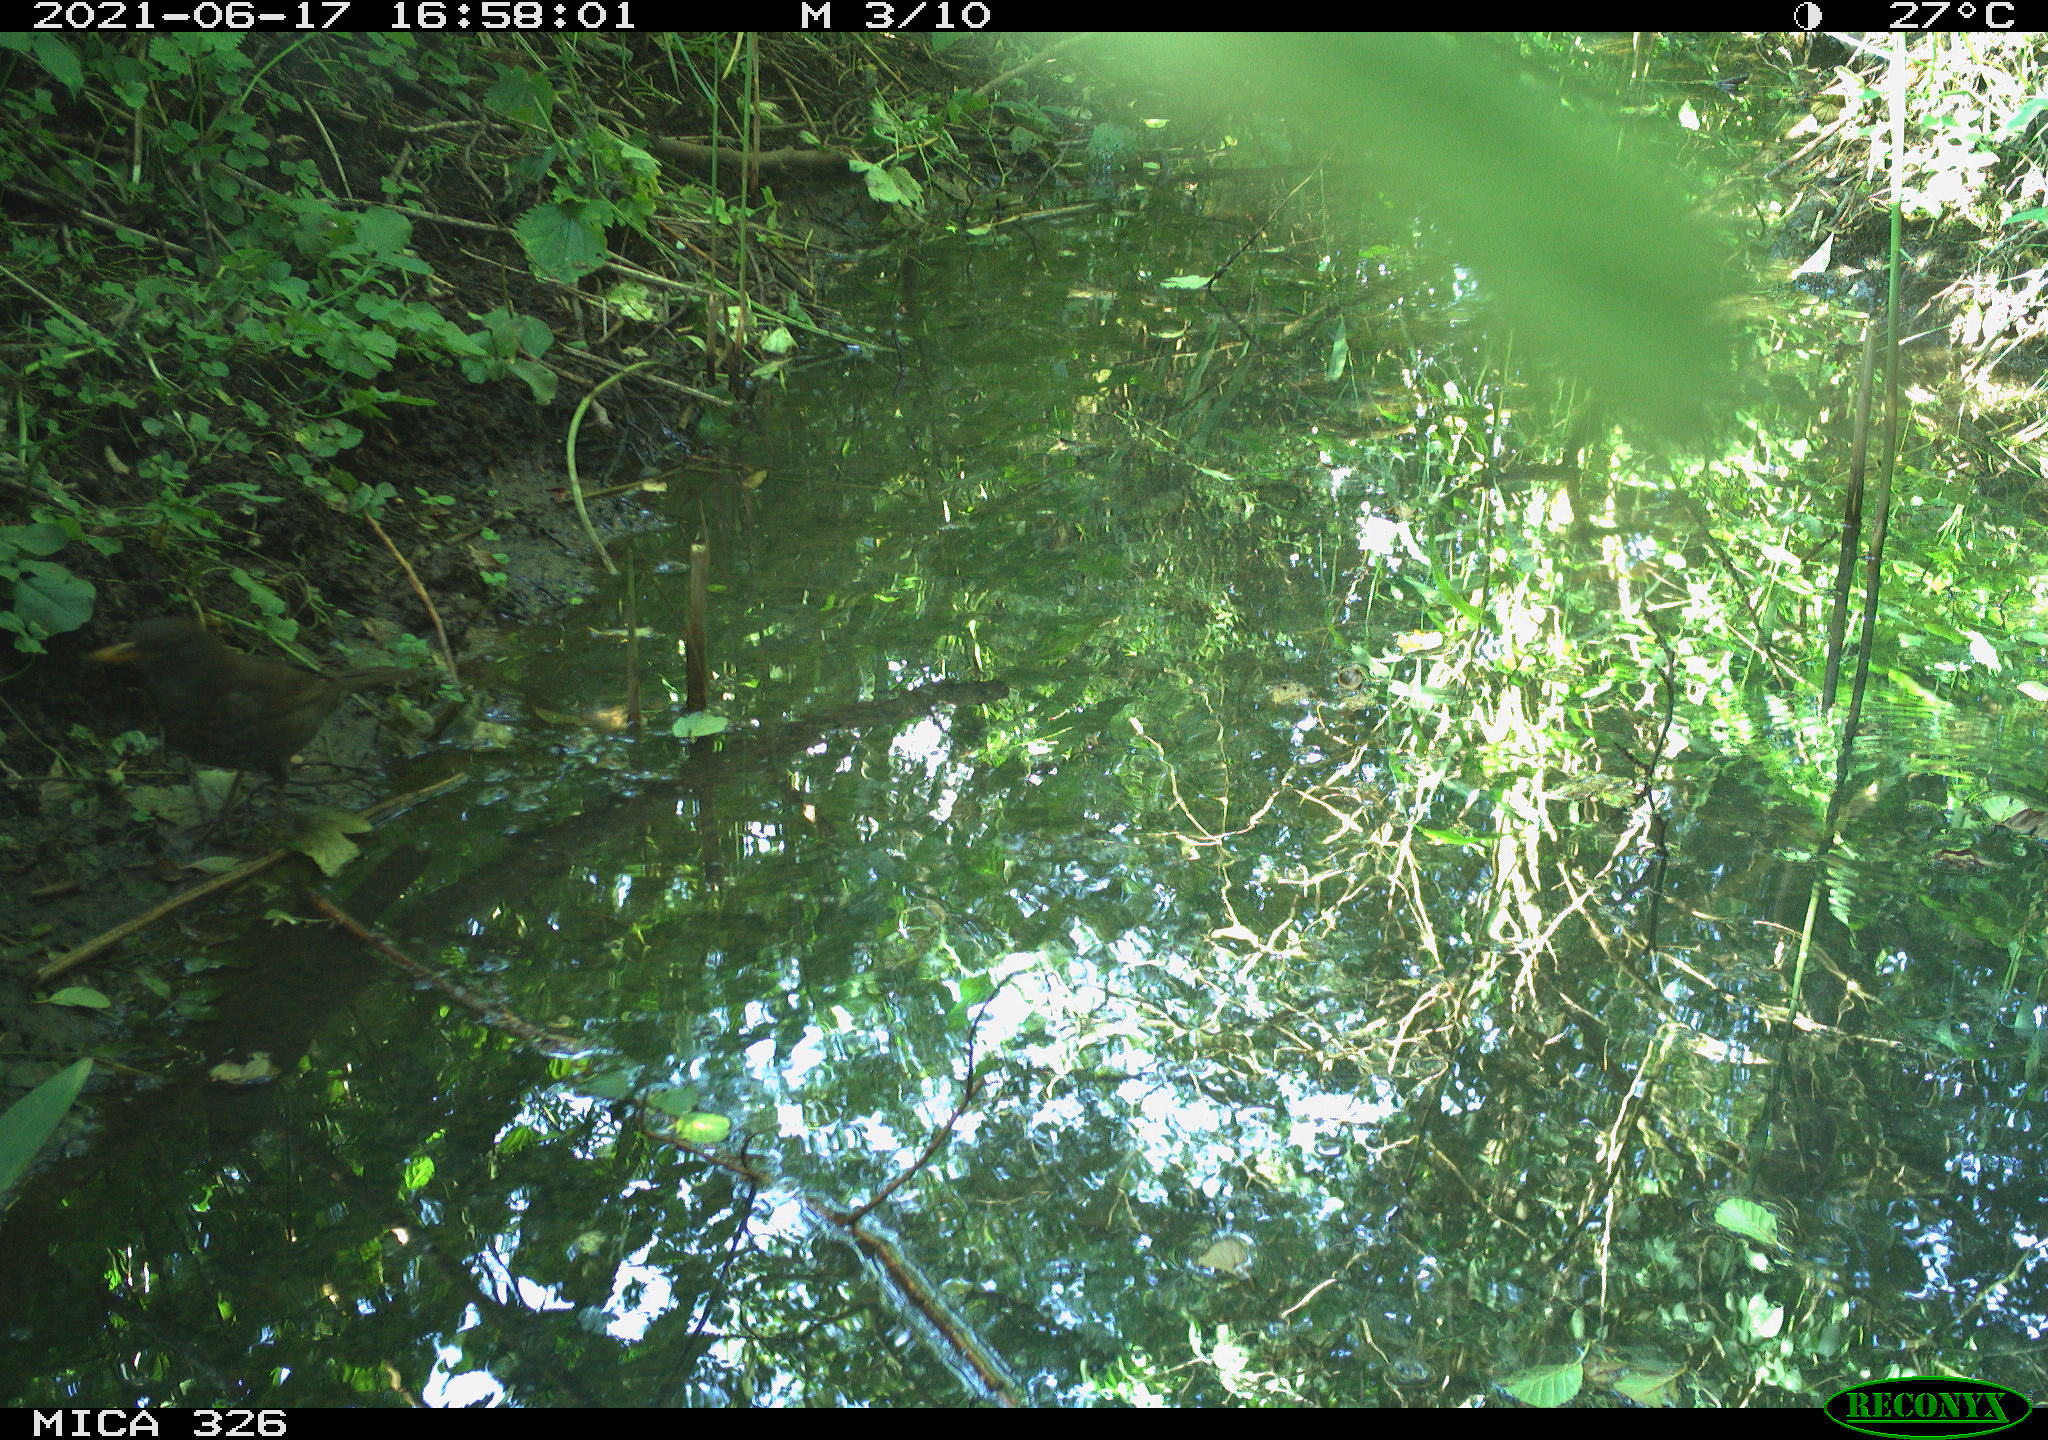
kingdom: Animalia
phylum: Chordata
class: Aves
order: Passeriformes
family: Turdidae
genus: Turdus
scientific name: Turdus merula
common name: Common blackbird
